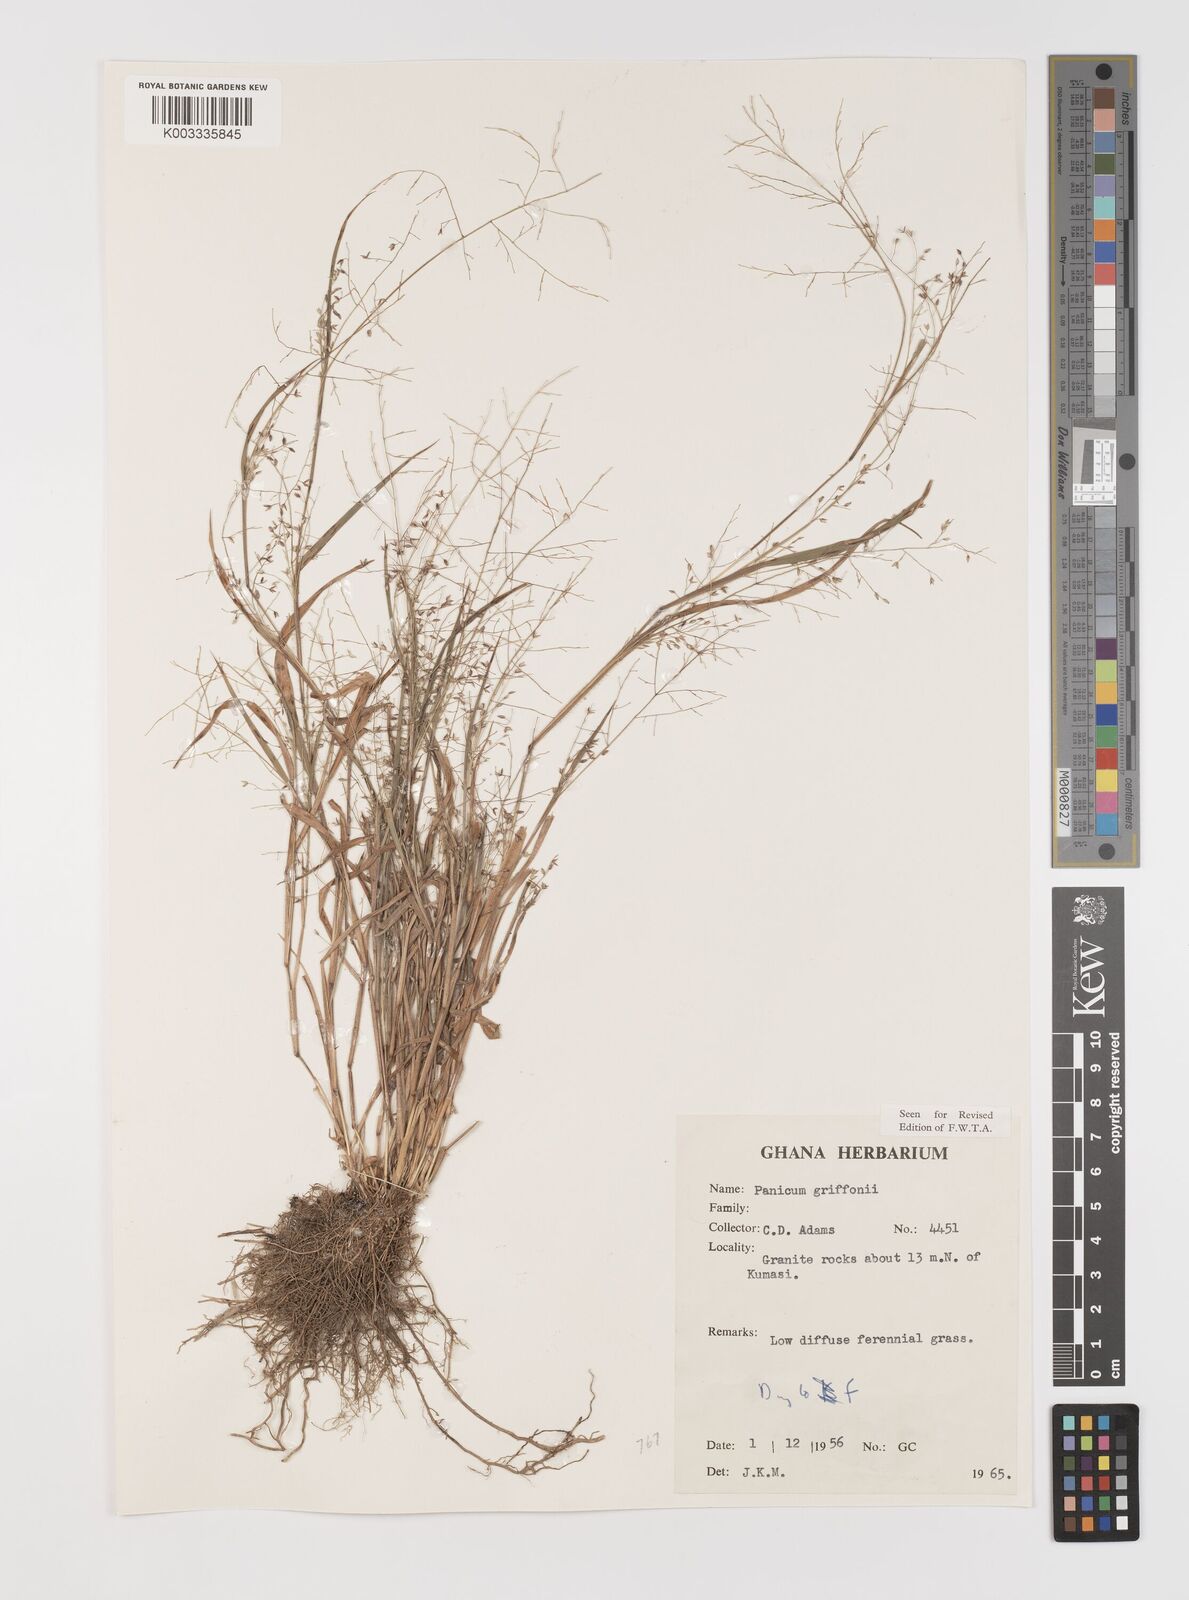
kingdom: Plantae
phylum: Tracheophyta
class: Liliopsida
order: Poales
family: Poaceae
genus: Panicum
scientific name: Panicum griffonii
